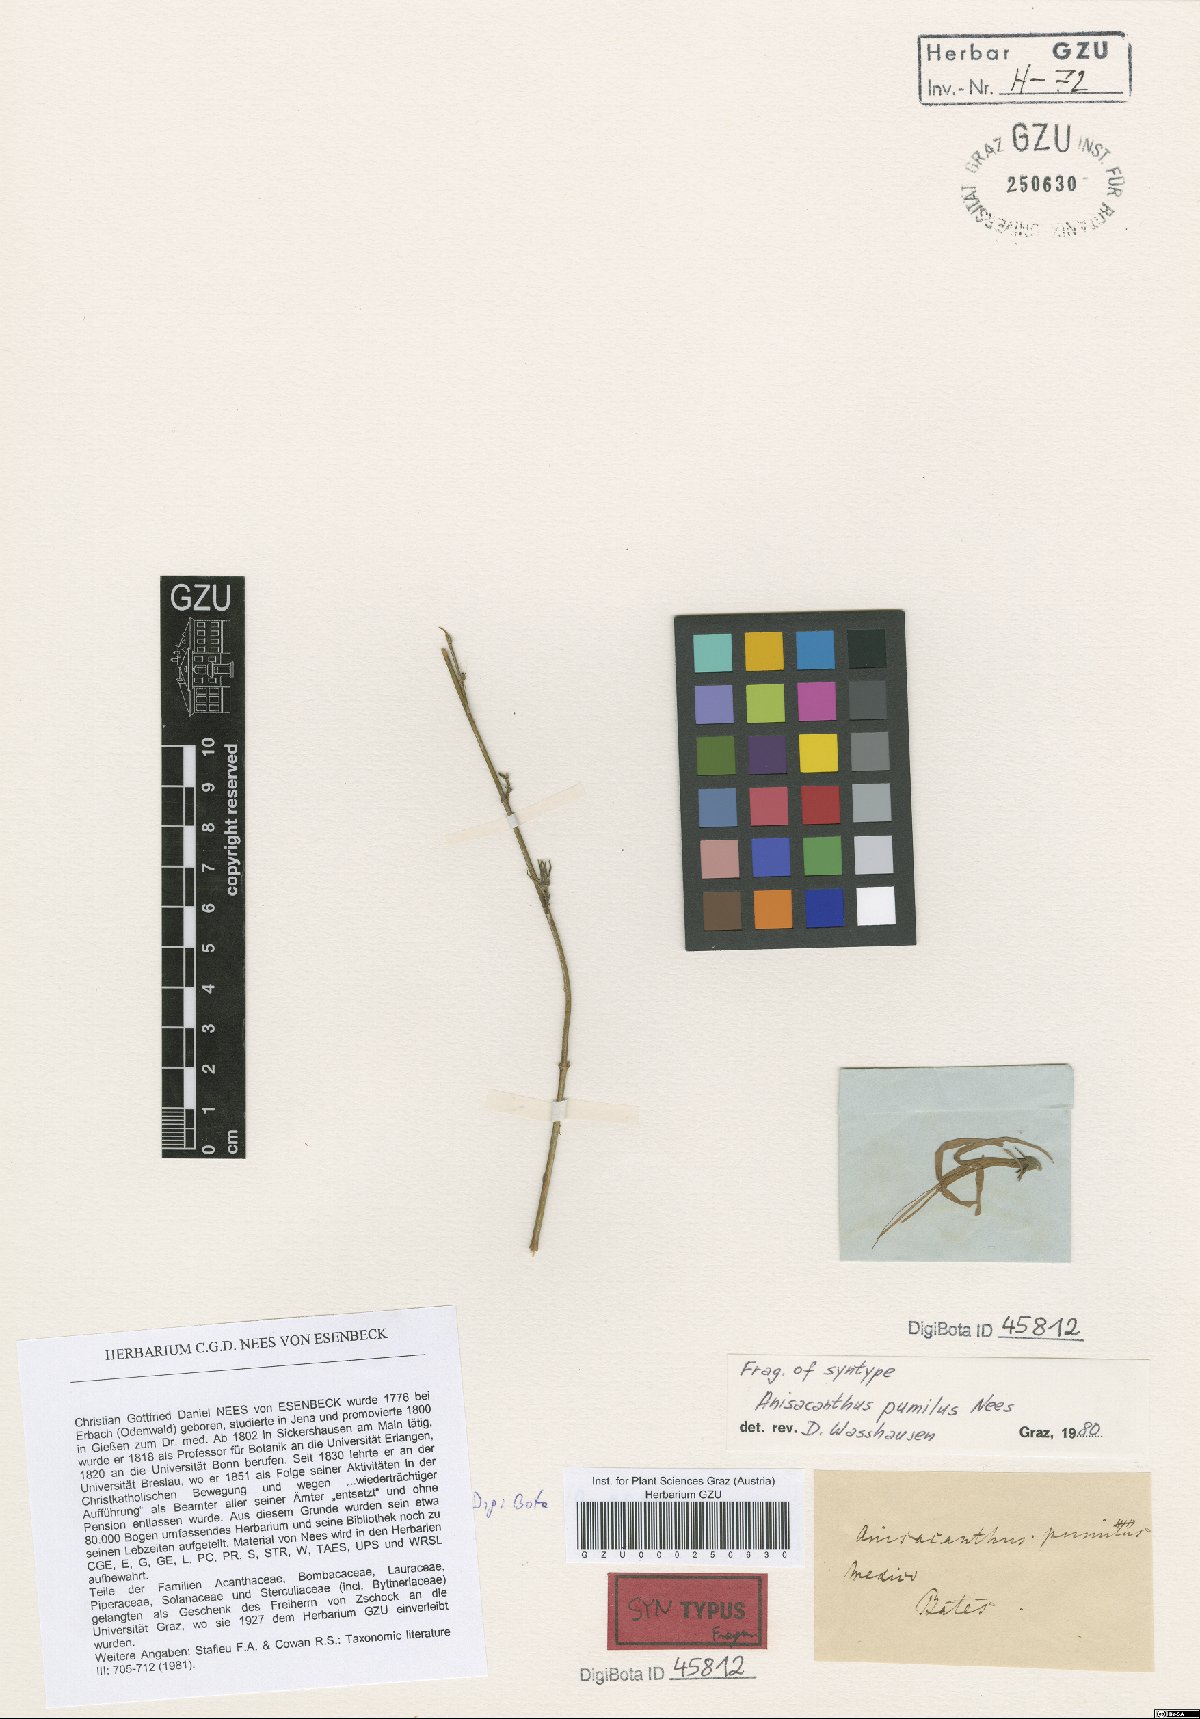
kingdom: Plantae
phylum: Tracheophyta
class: Magnoliopsida
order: Lamiales
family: Acanthaceae
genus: Anisacanthus
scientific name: Anisacanthus pumilus
